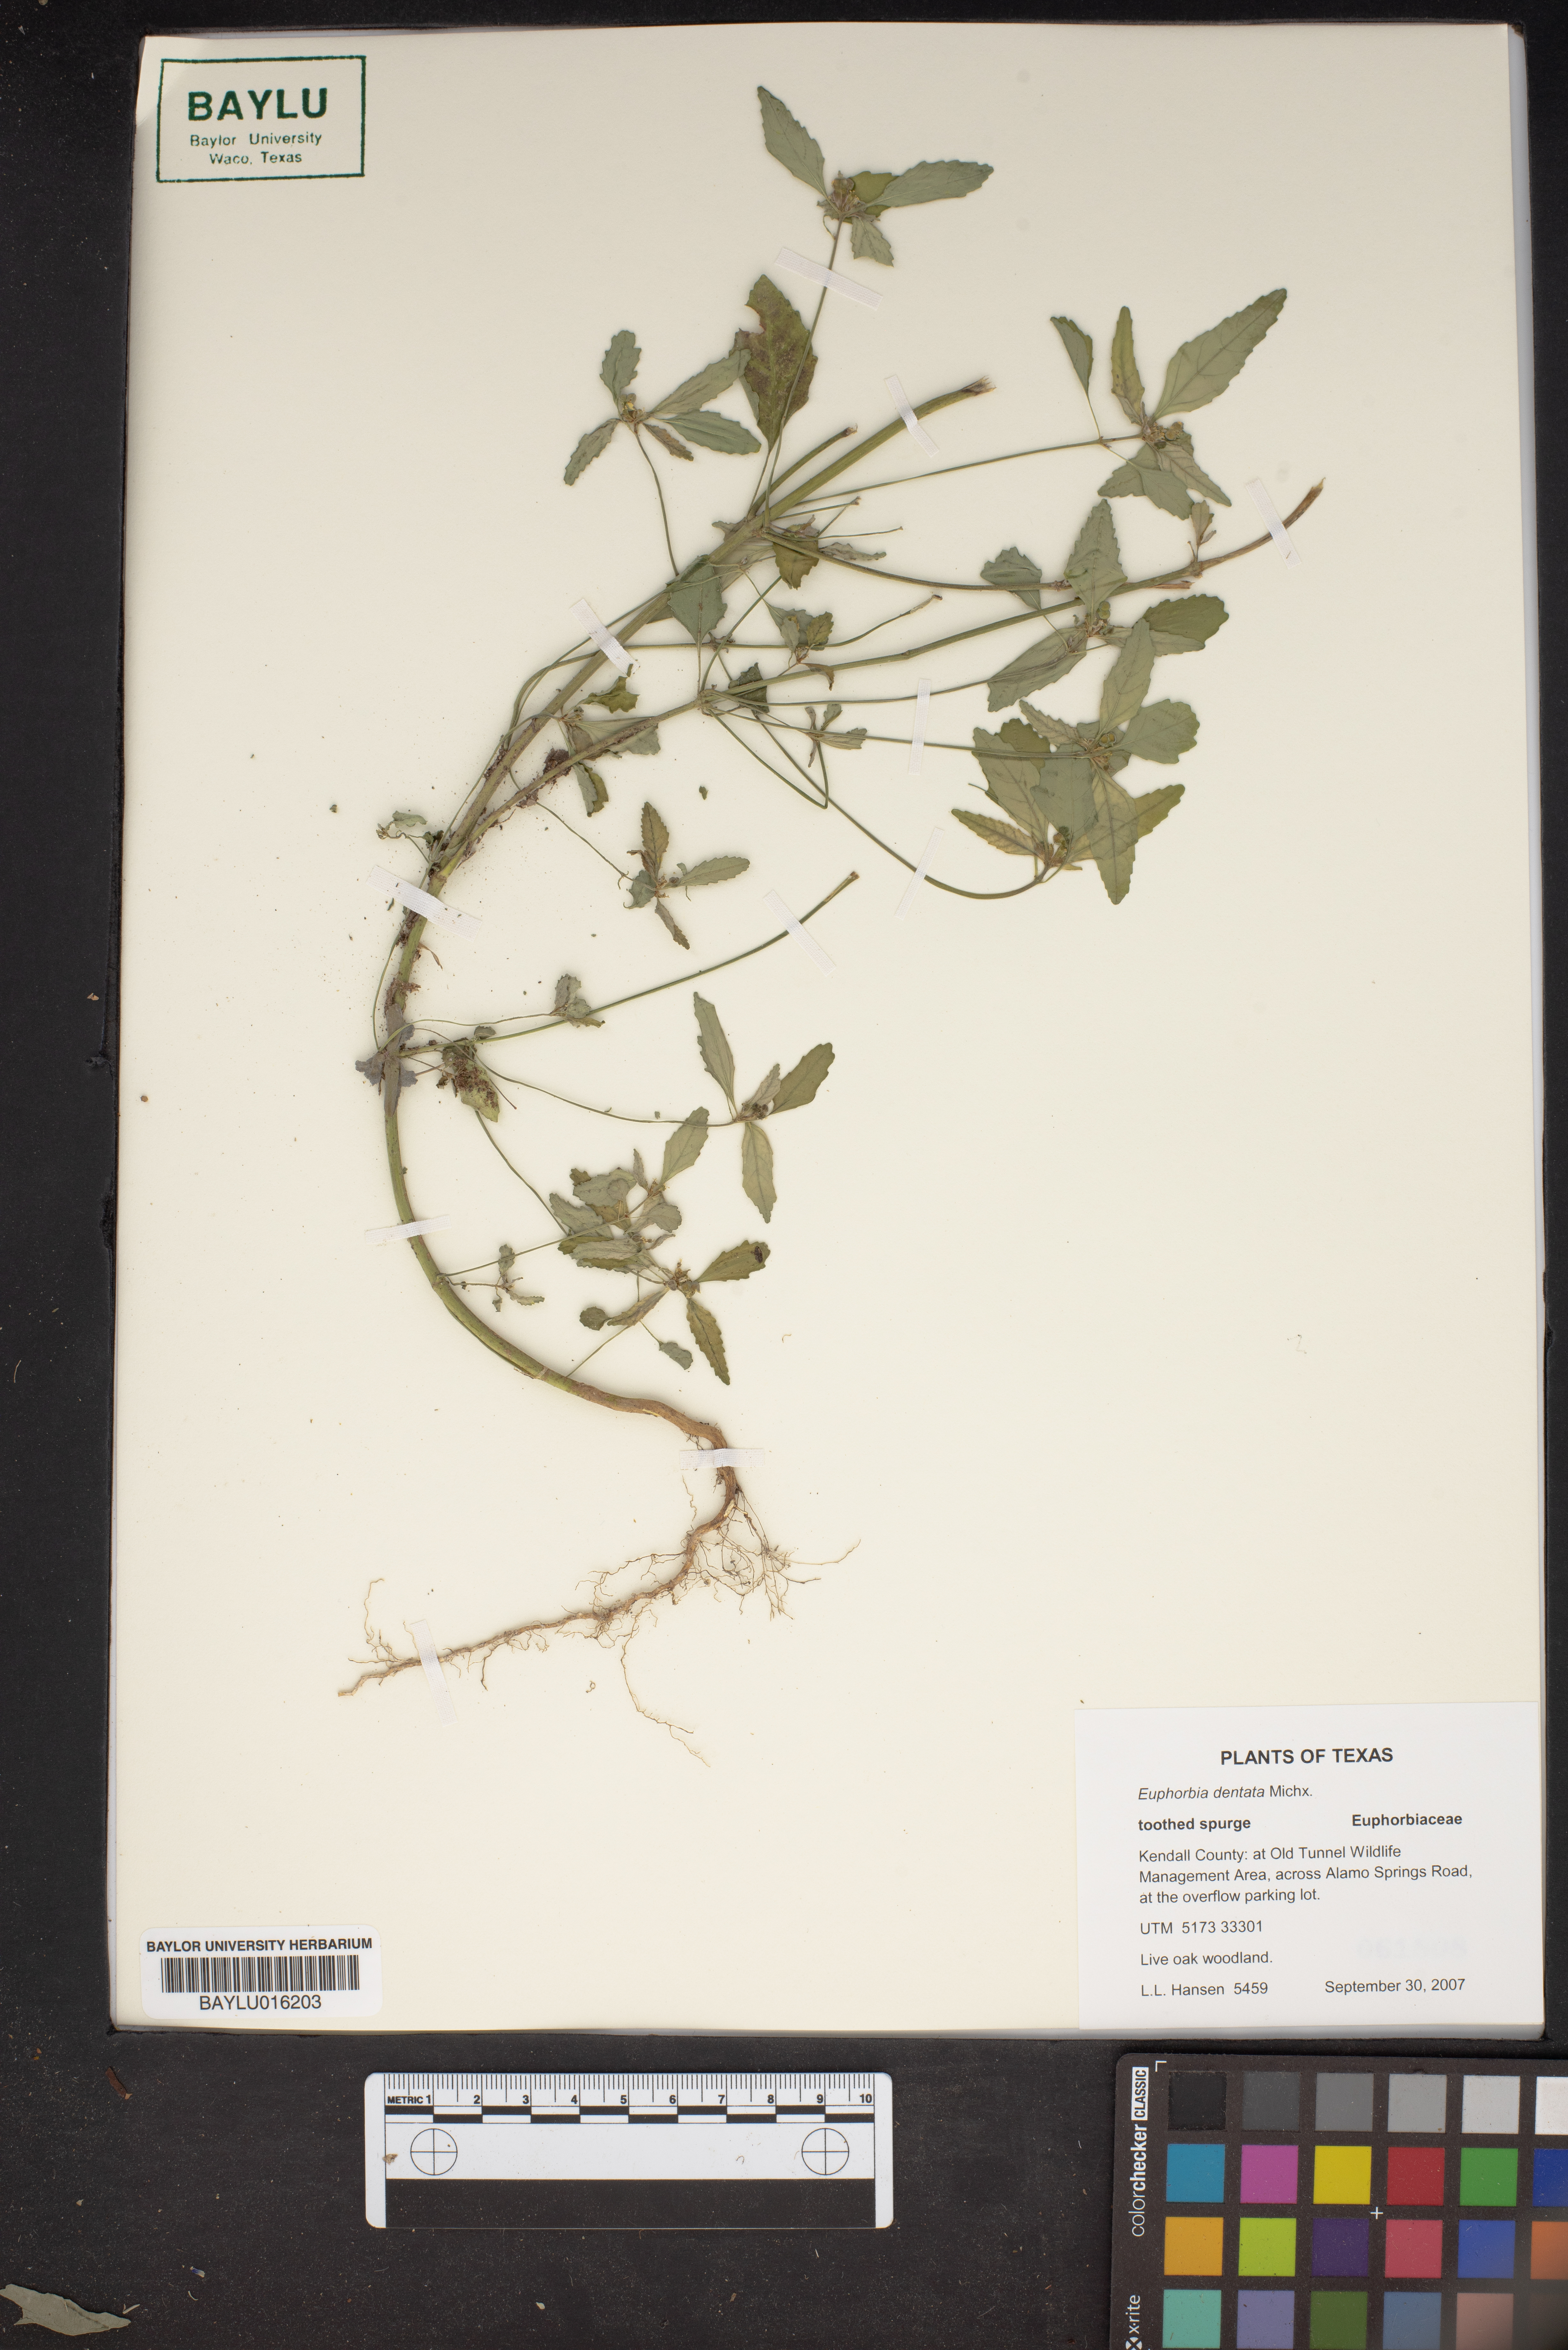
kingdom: Plantae
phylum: Tracheophyta
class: Magnoliopsida
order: Malpighiales
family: Euphorbiaceae
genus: Euphorbia
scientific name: Euphorbia dentata
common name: Dentate spurge
